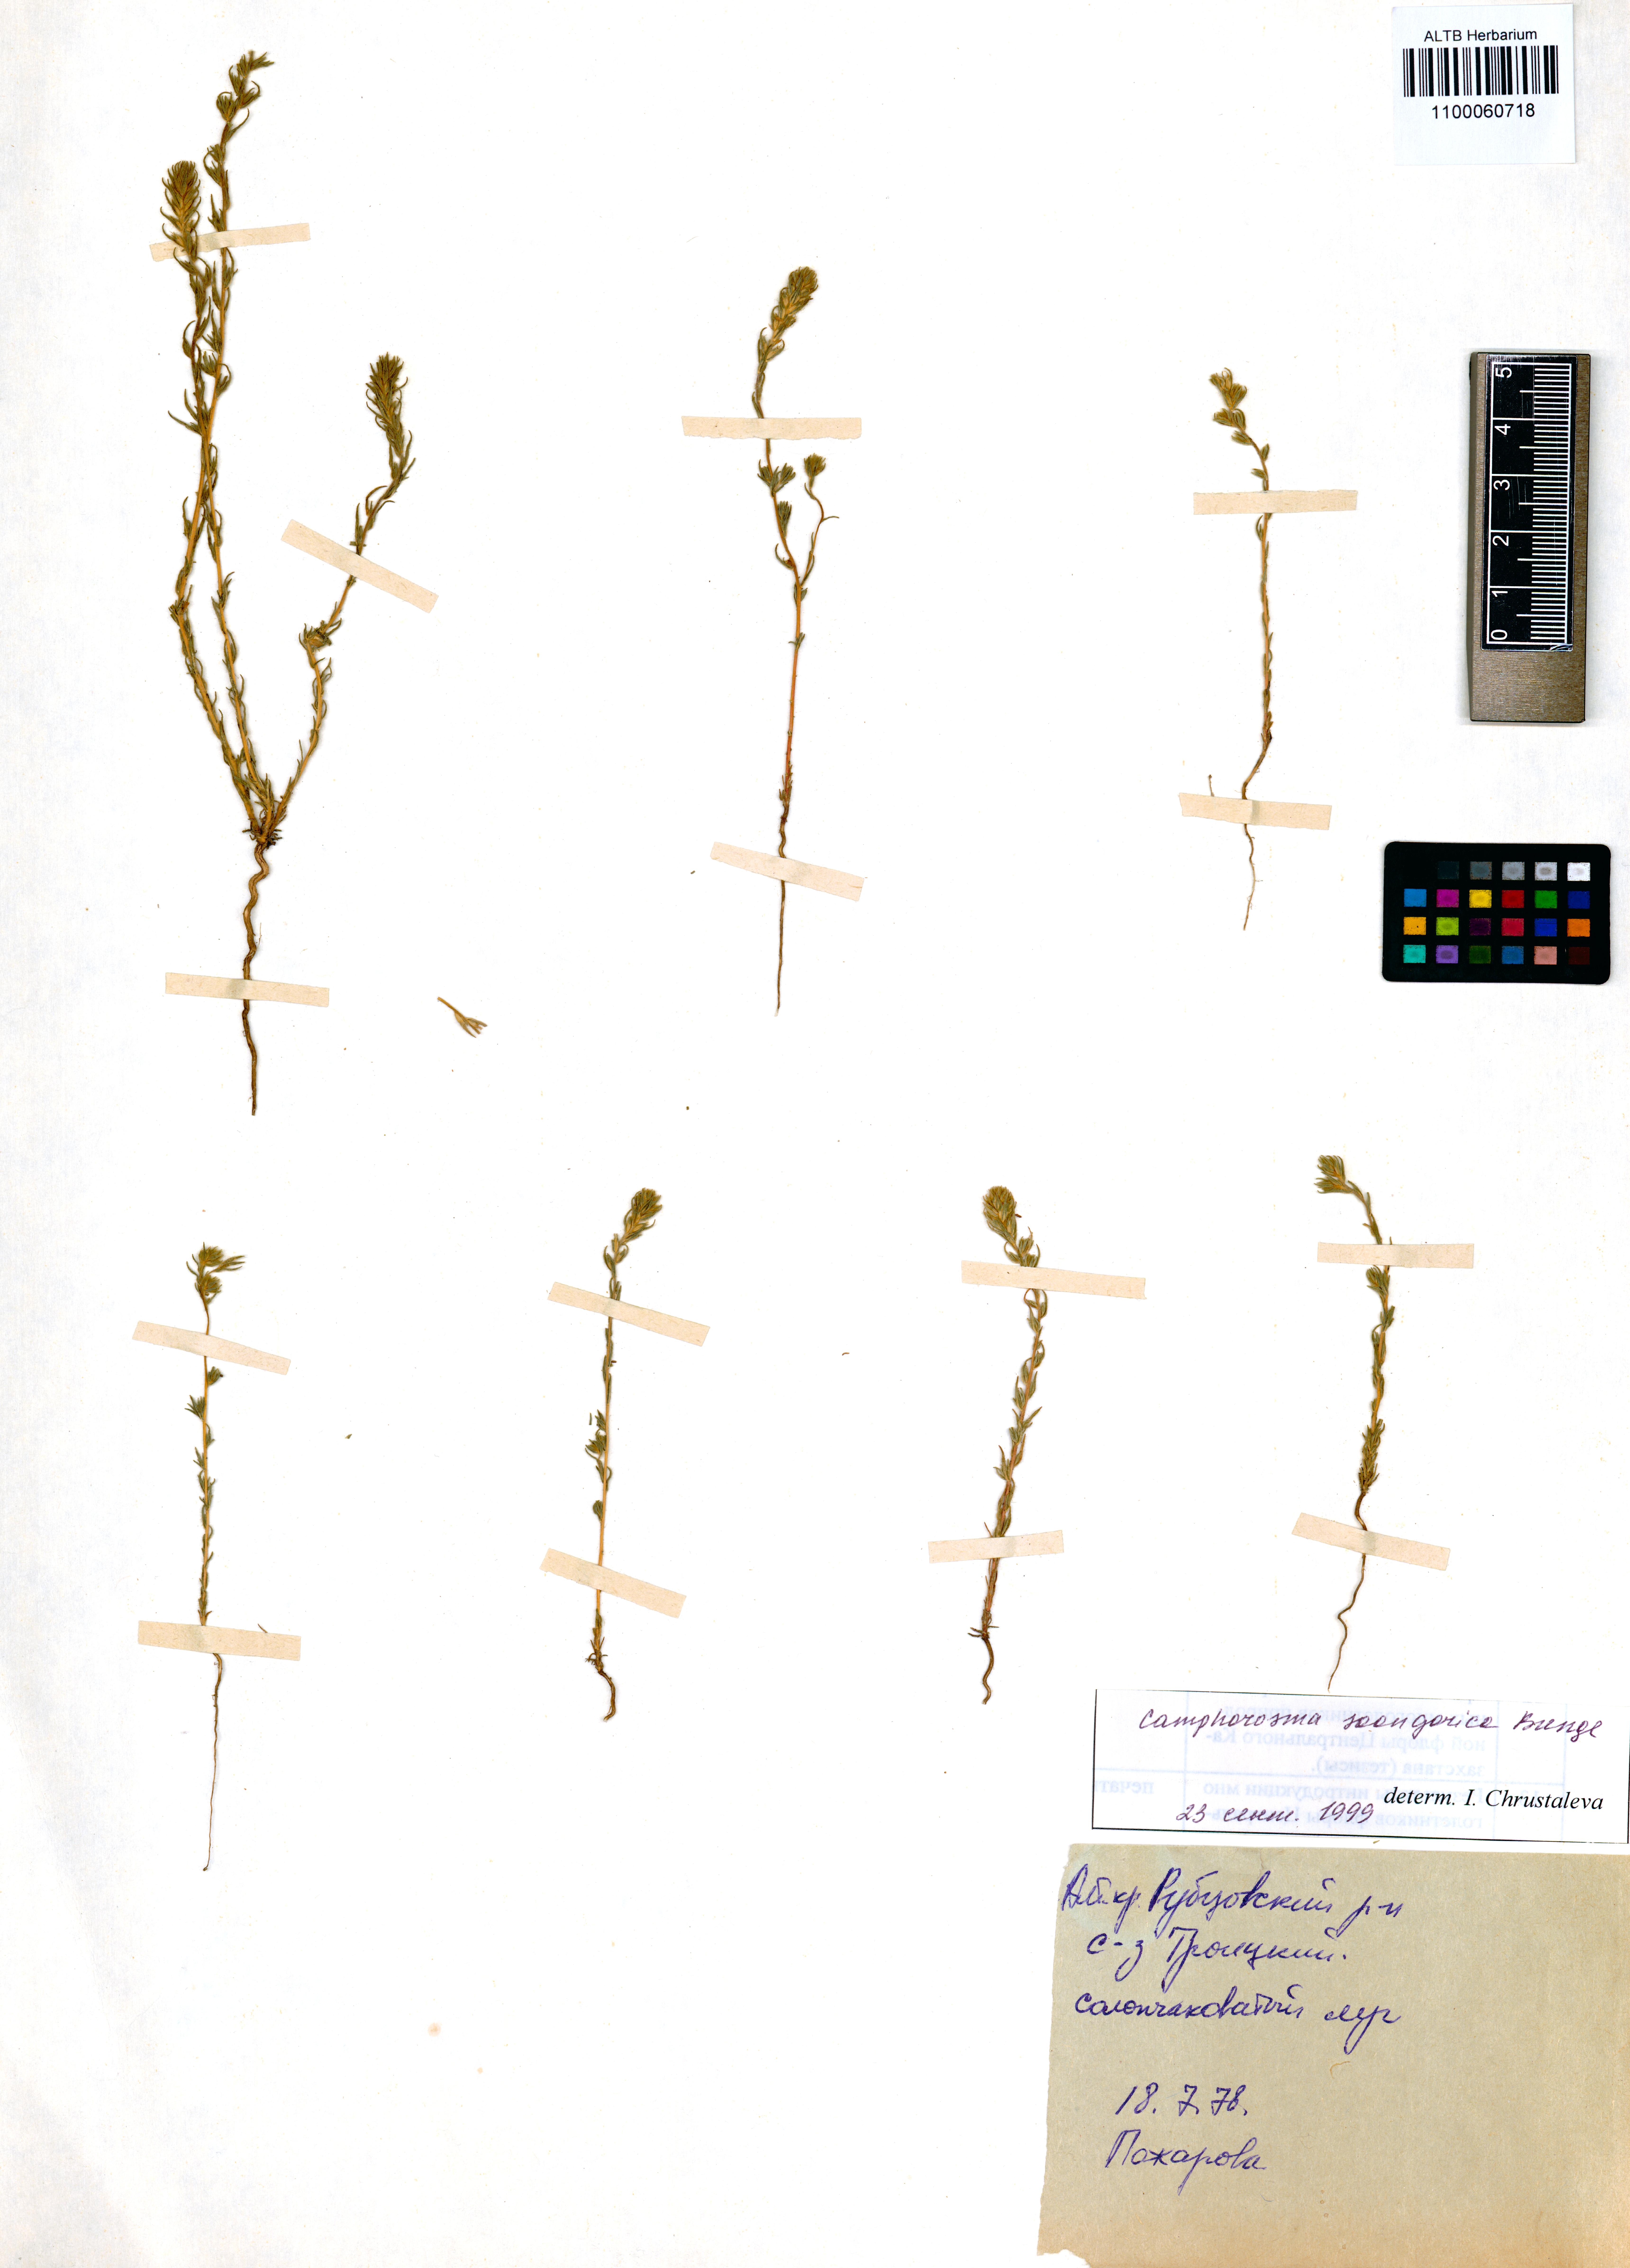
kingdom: Plantae
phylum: Tracheophyta
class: Magnoliopsida
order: Caryophyllales
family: Amaranthaceae
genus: Camphorosma
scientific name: Camphorosma songorica
